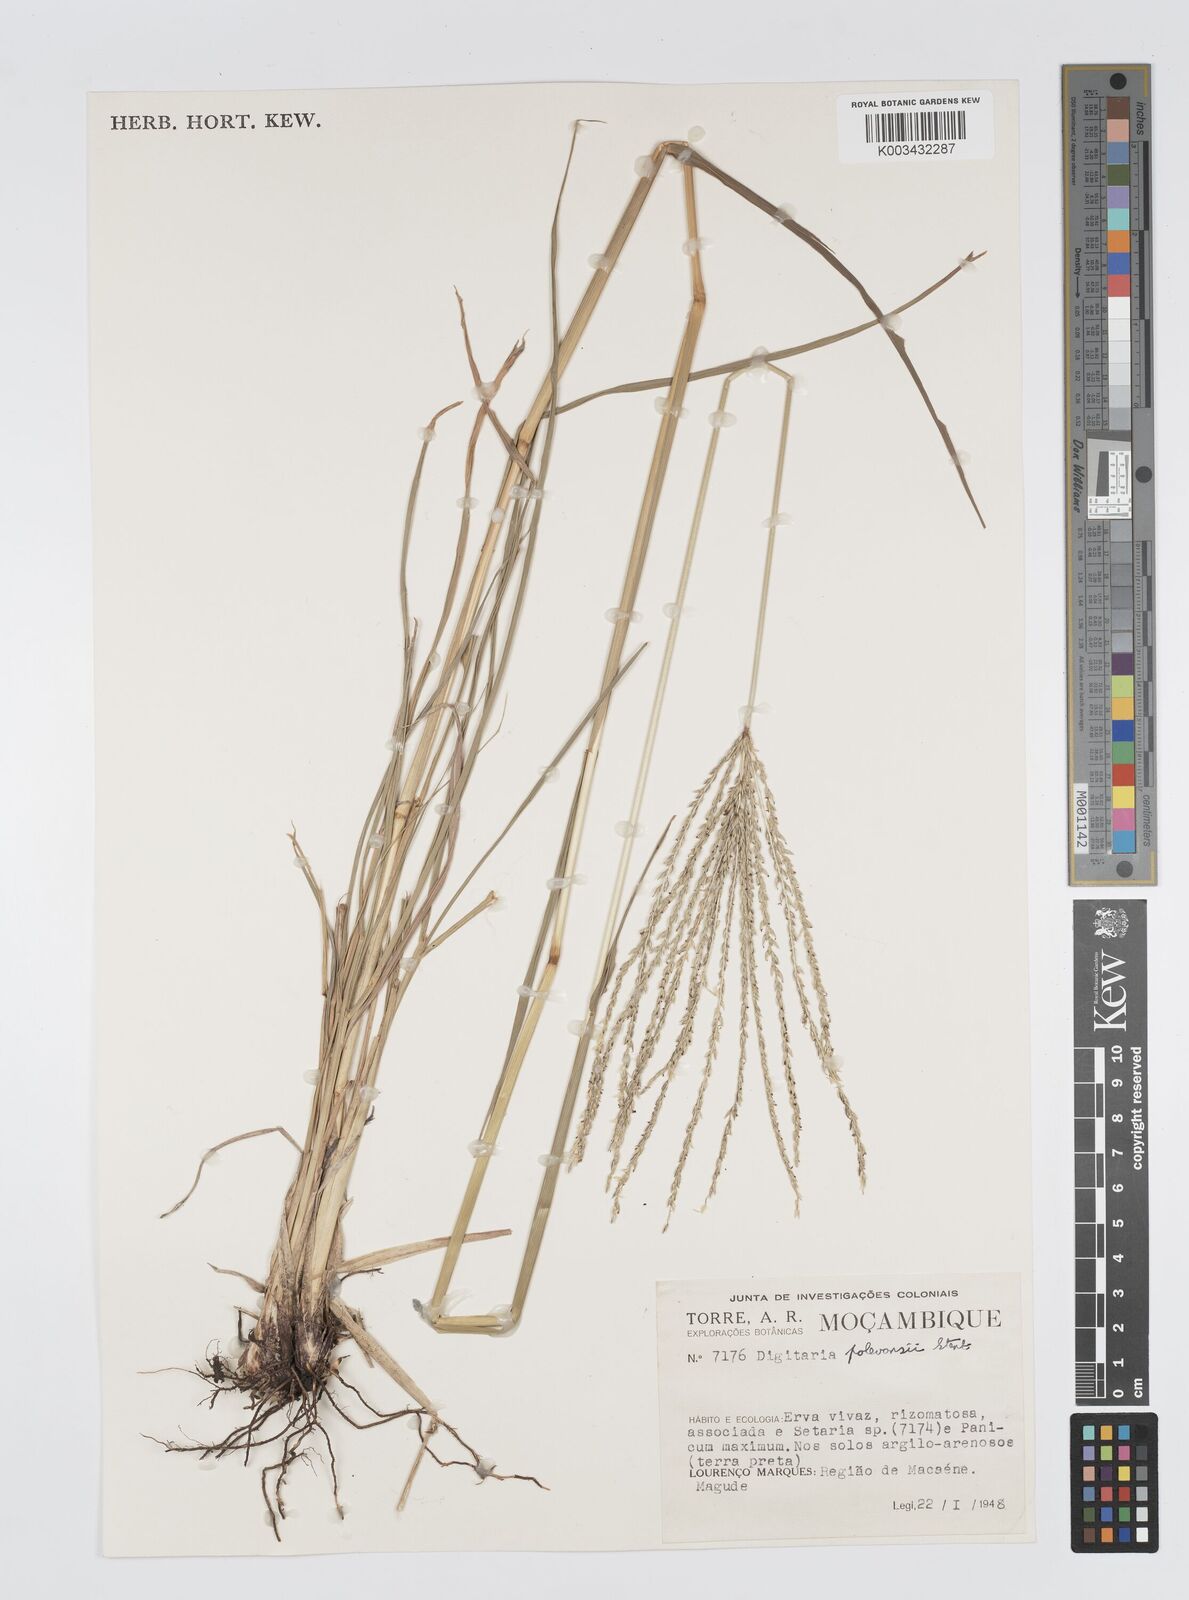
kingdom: Plantae
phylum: Tracheophyta
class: Liliopsida
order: Poales
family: Poaceae
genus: Digitaria
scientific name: Digitaria seriata
